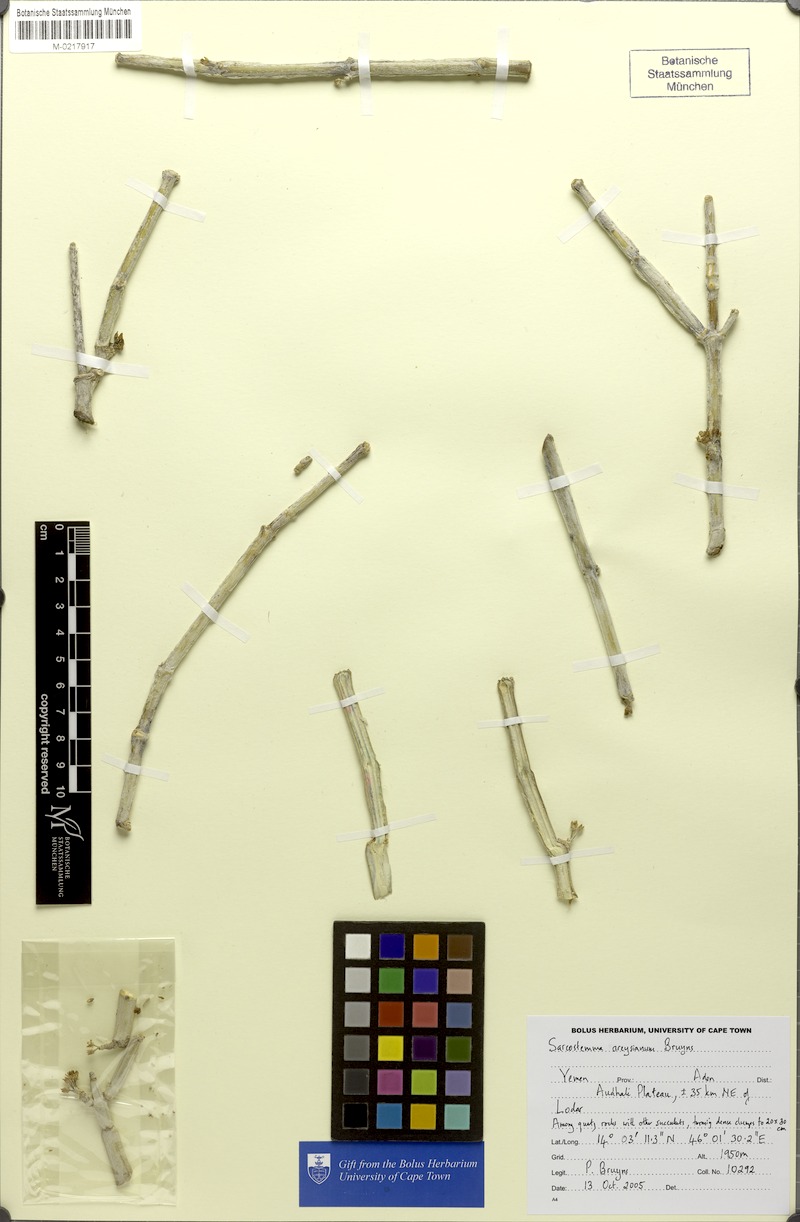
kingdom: Plantae
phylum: Tracheophyta
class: Magnoliopsida
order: Gentianales
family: Apocynaceae
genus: Cynanchum
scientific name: Cynanchum areysianum
